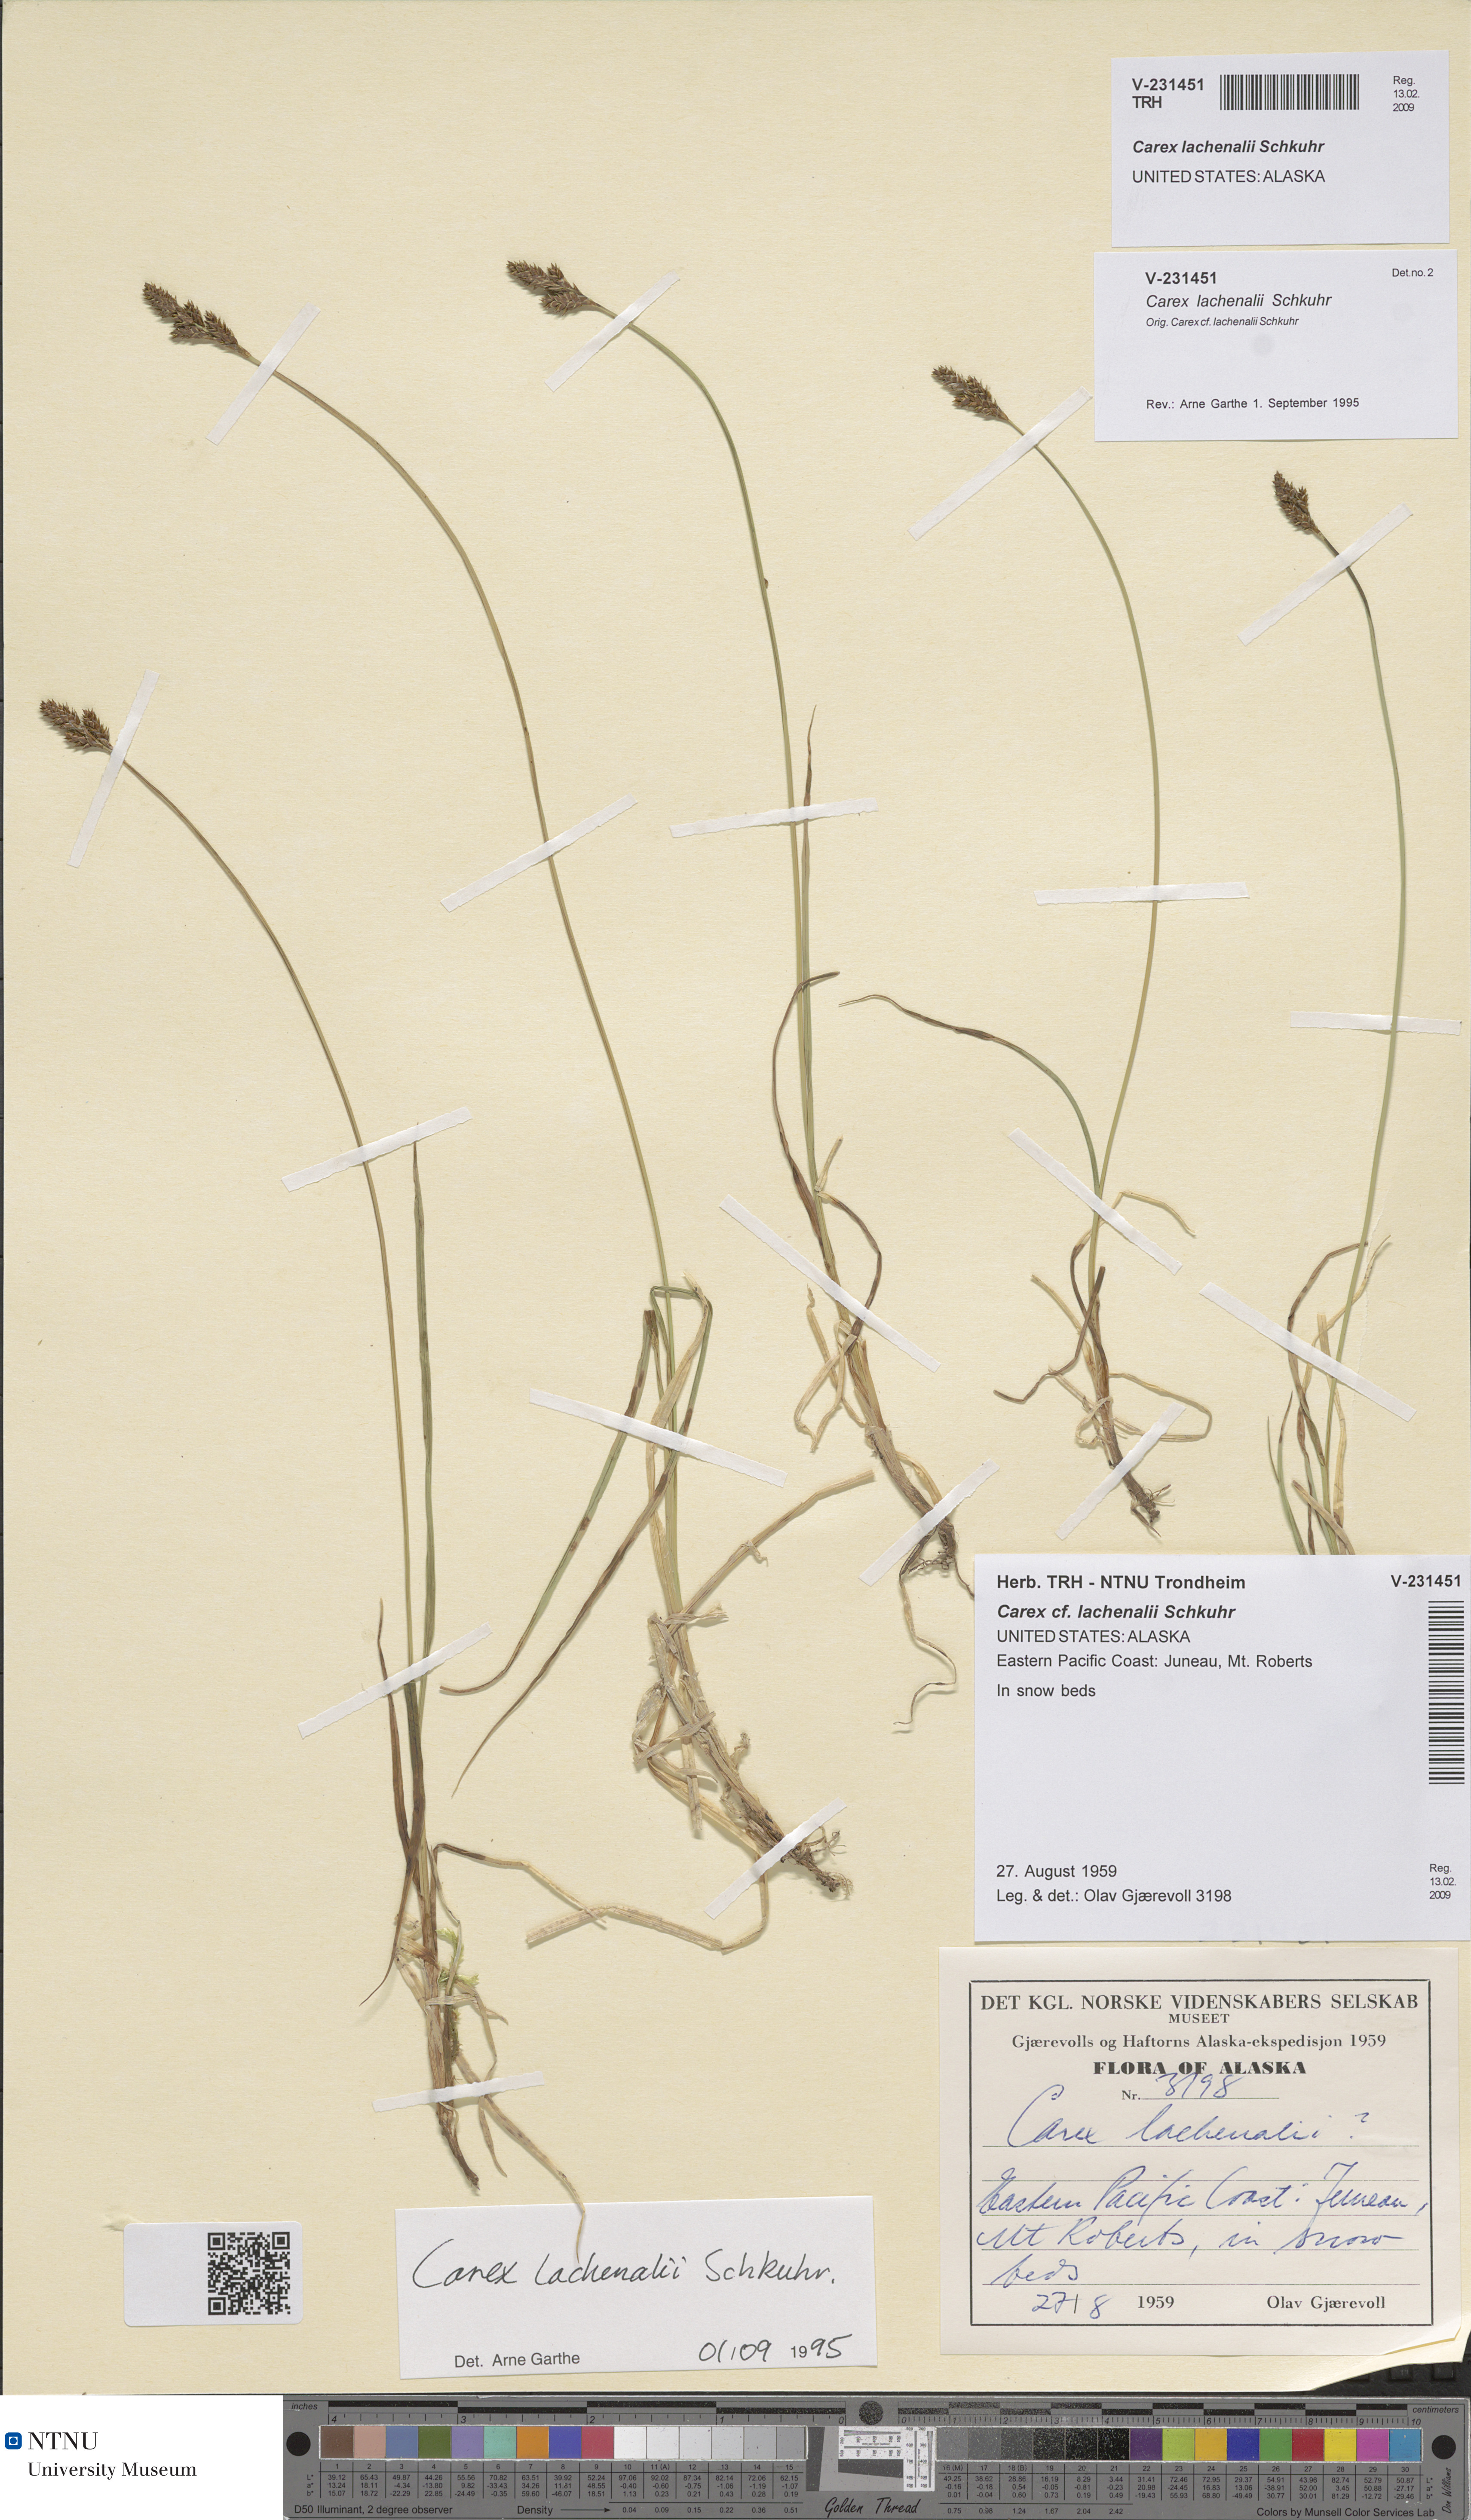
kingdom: Plantae
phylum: Tracheophyta
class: Liliopsida
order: Poales
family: Cyperaceae
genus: Carex
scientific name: Carex lachenalii
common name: Hare's-foot sedge
